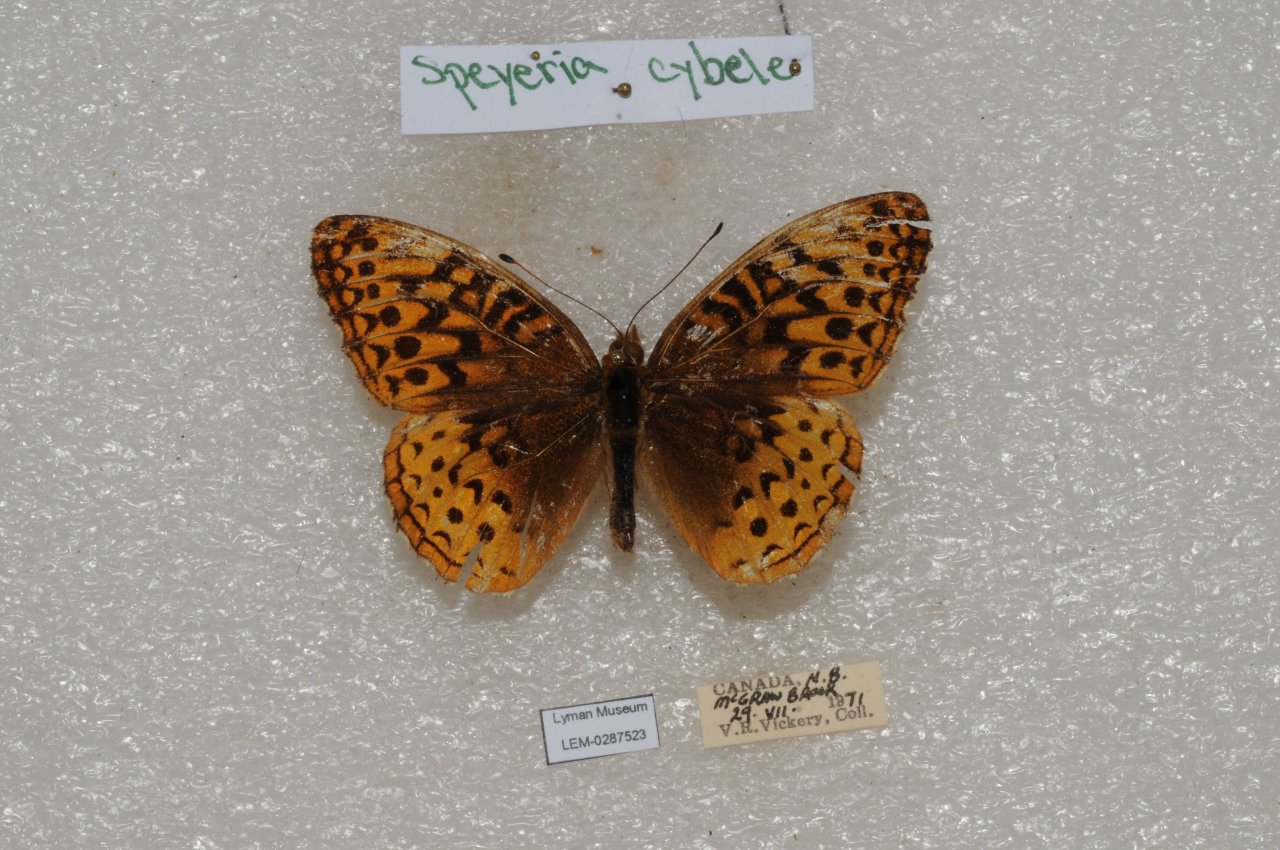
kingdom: Animalia
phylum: Arthropoda
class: Insecta
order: Lepidoptera
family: Nymphalidae
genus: Speyeria
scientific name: Speyeria cybele
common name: Great Spangled Fritillary
